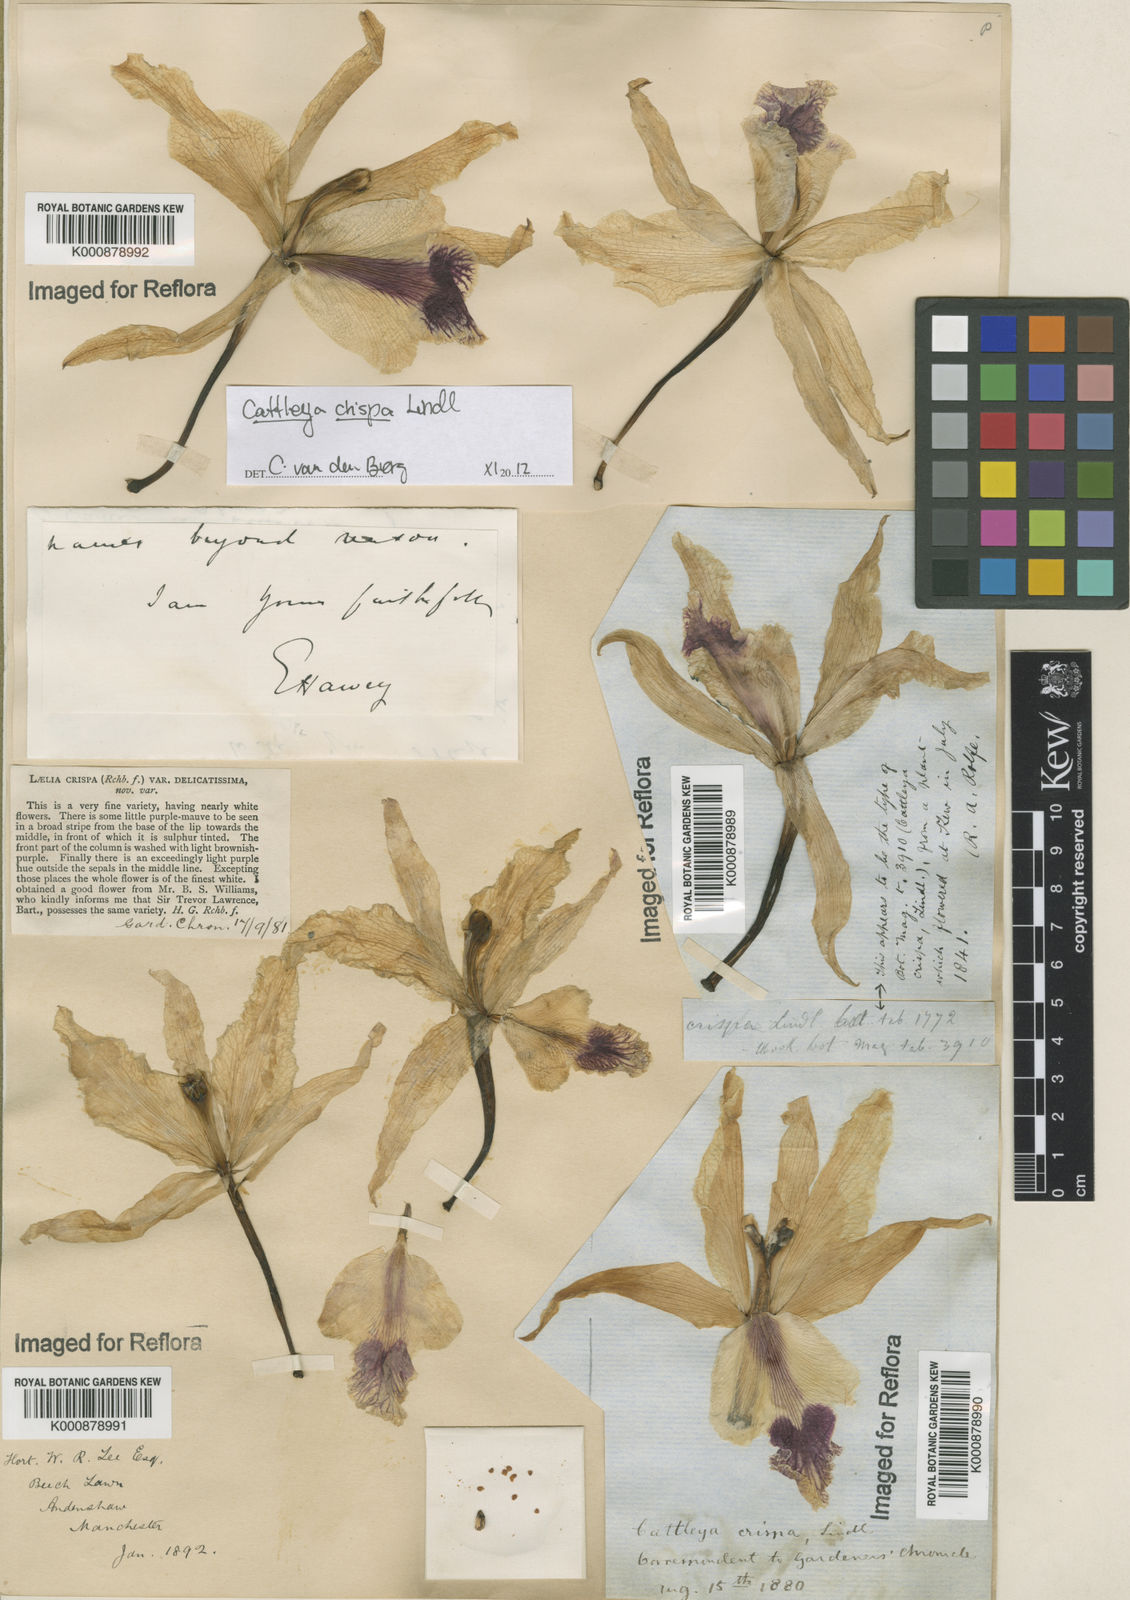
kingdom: Plantae
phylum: Tracheophyta
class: Liliopsida
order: Asparagales
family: Orchidaceae
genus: Cattleya
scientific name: Cattleya crispata
